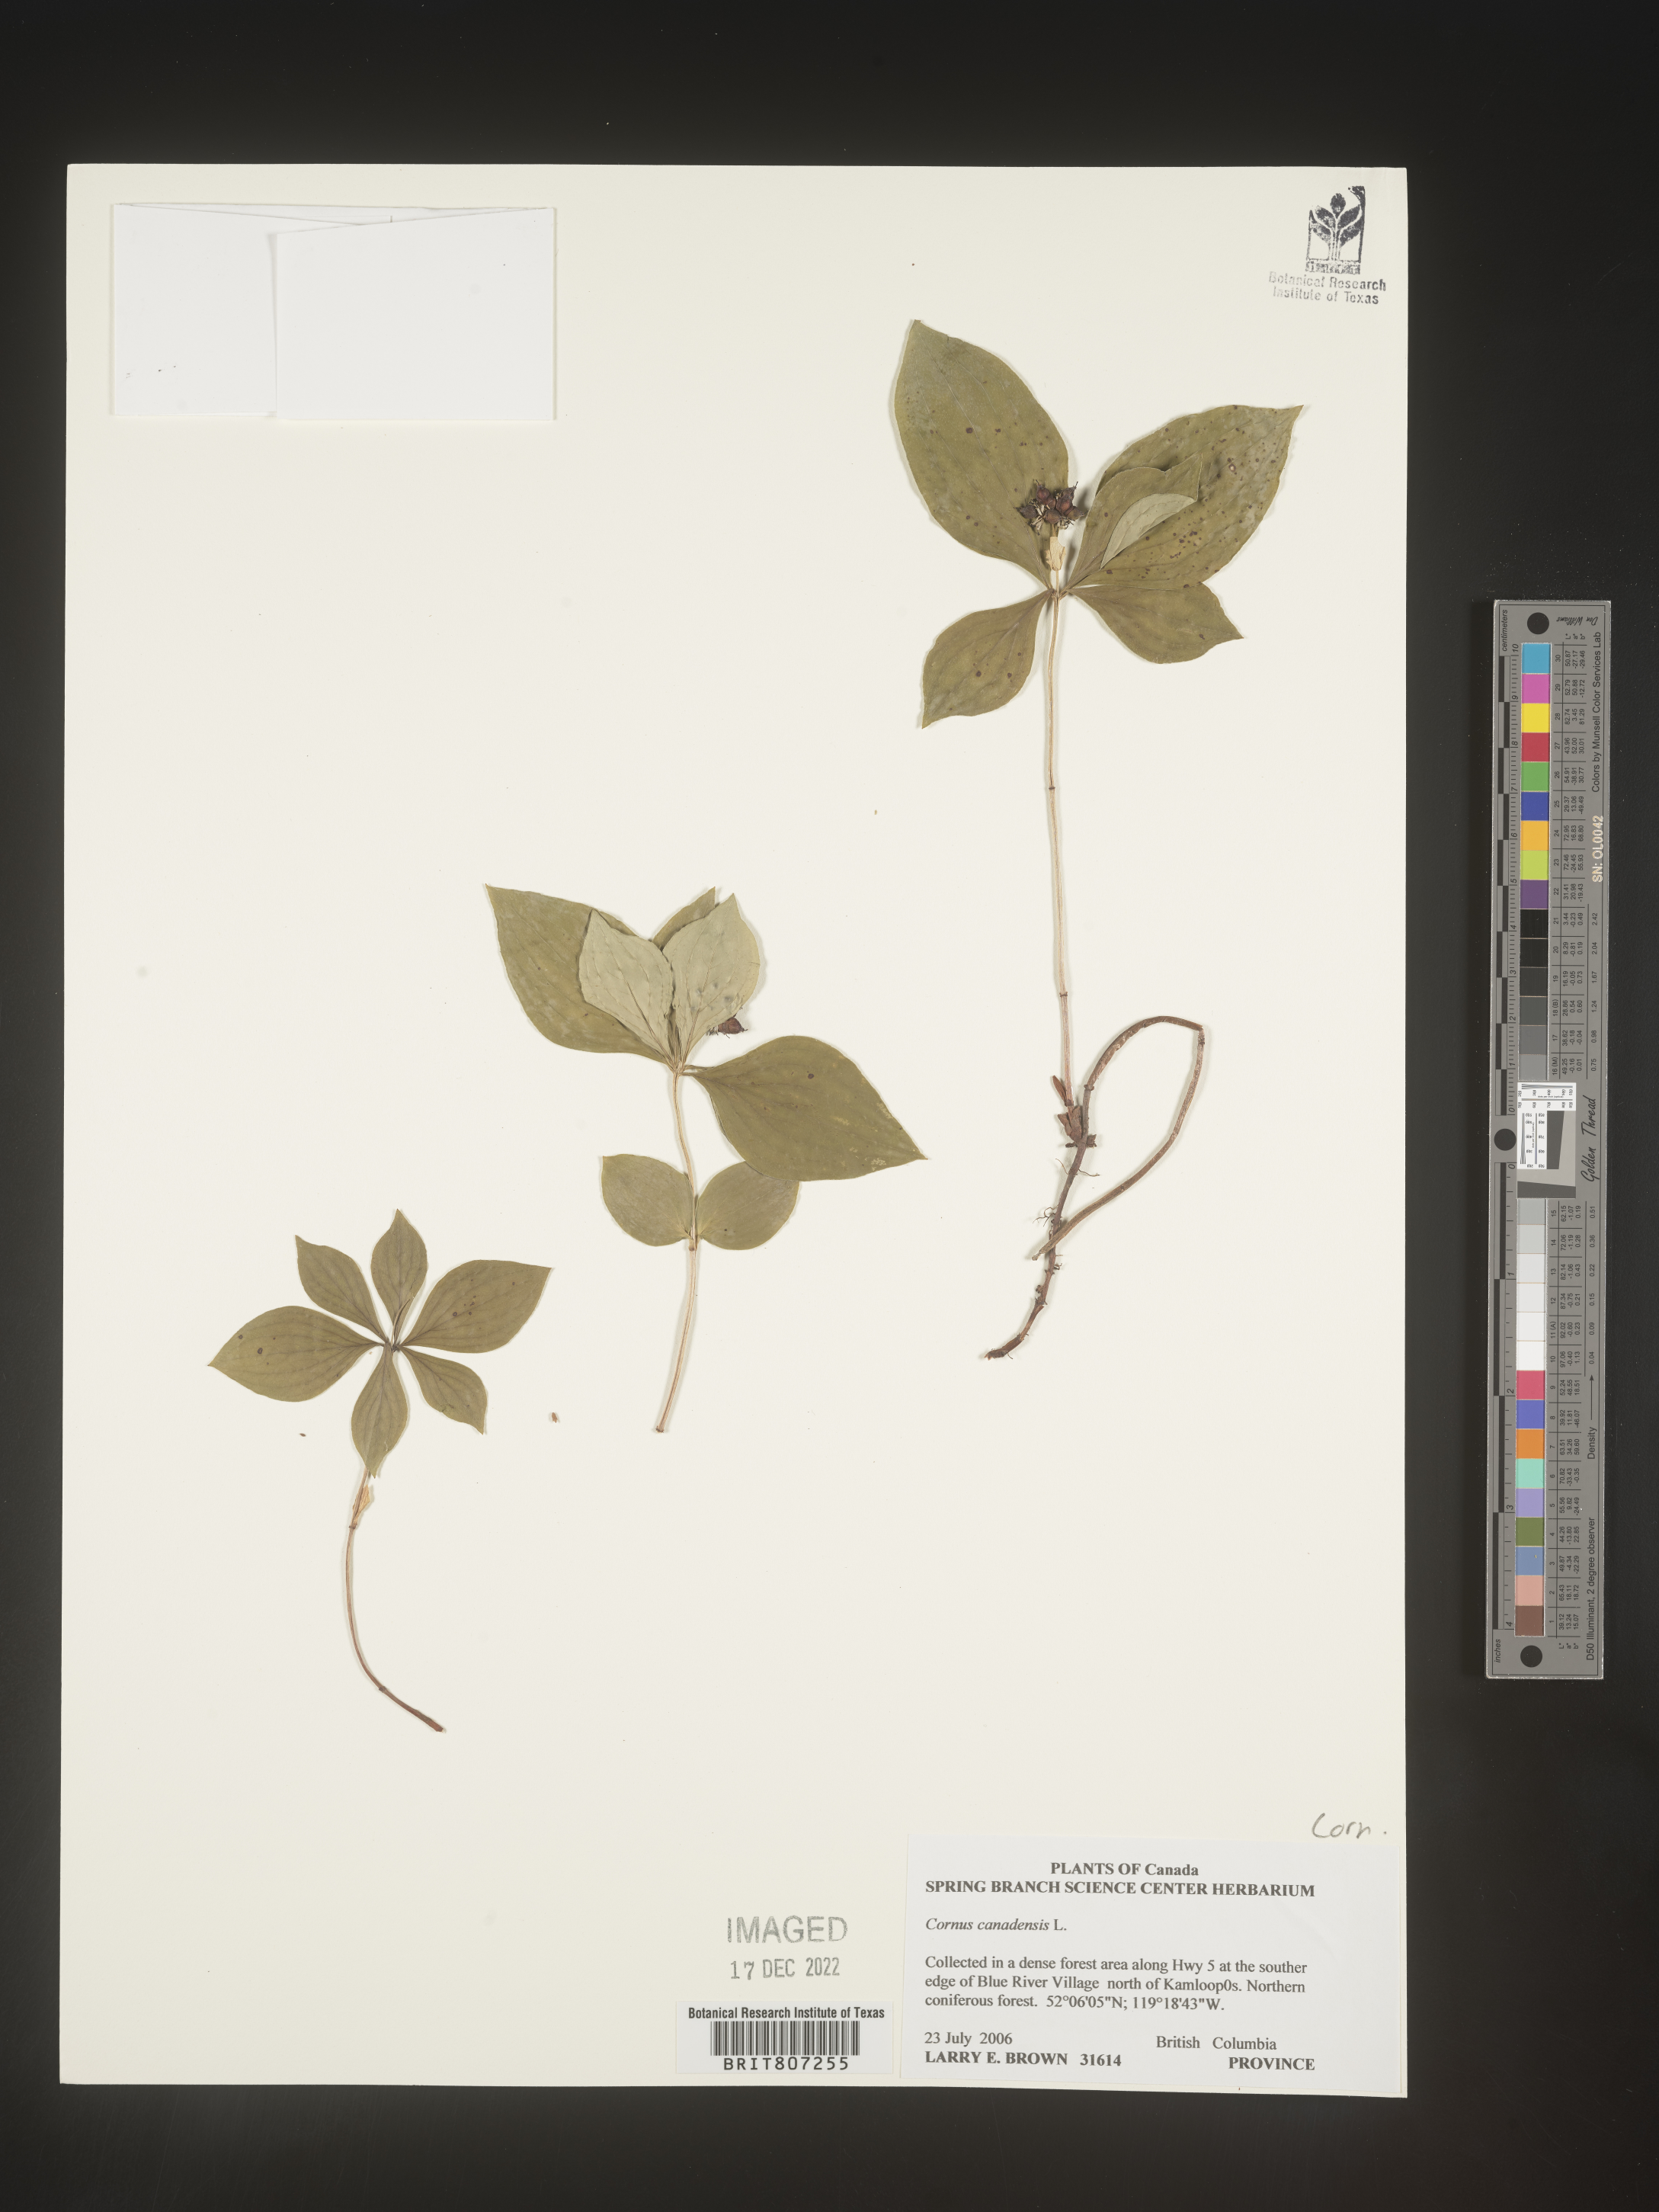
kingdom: Plantae
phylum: Tracheophyta
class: Magnoliopsida
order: Cornales
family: Cornaceae
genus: Cornus
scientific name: Cornus canadensis
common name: Creeping dogwood
